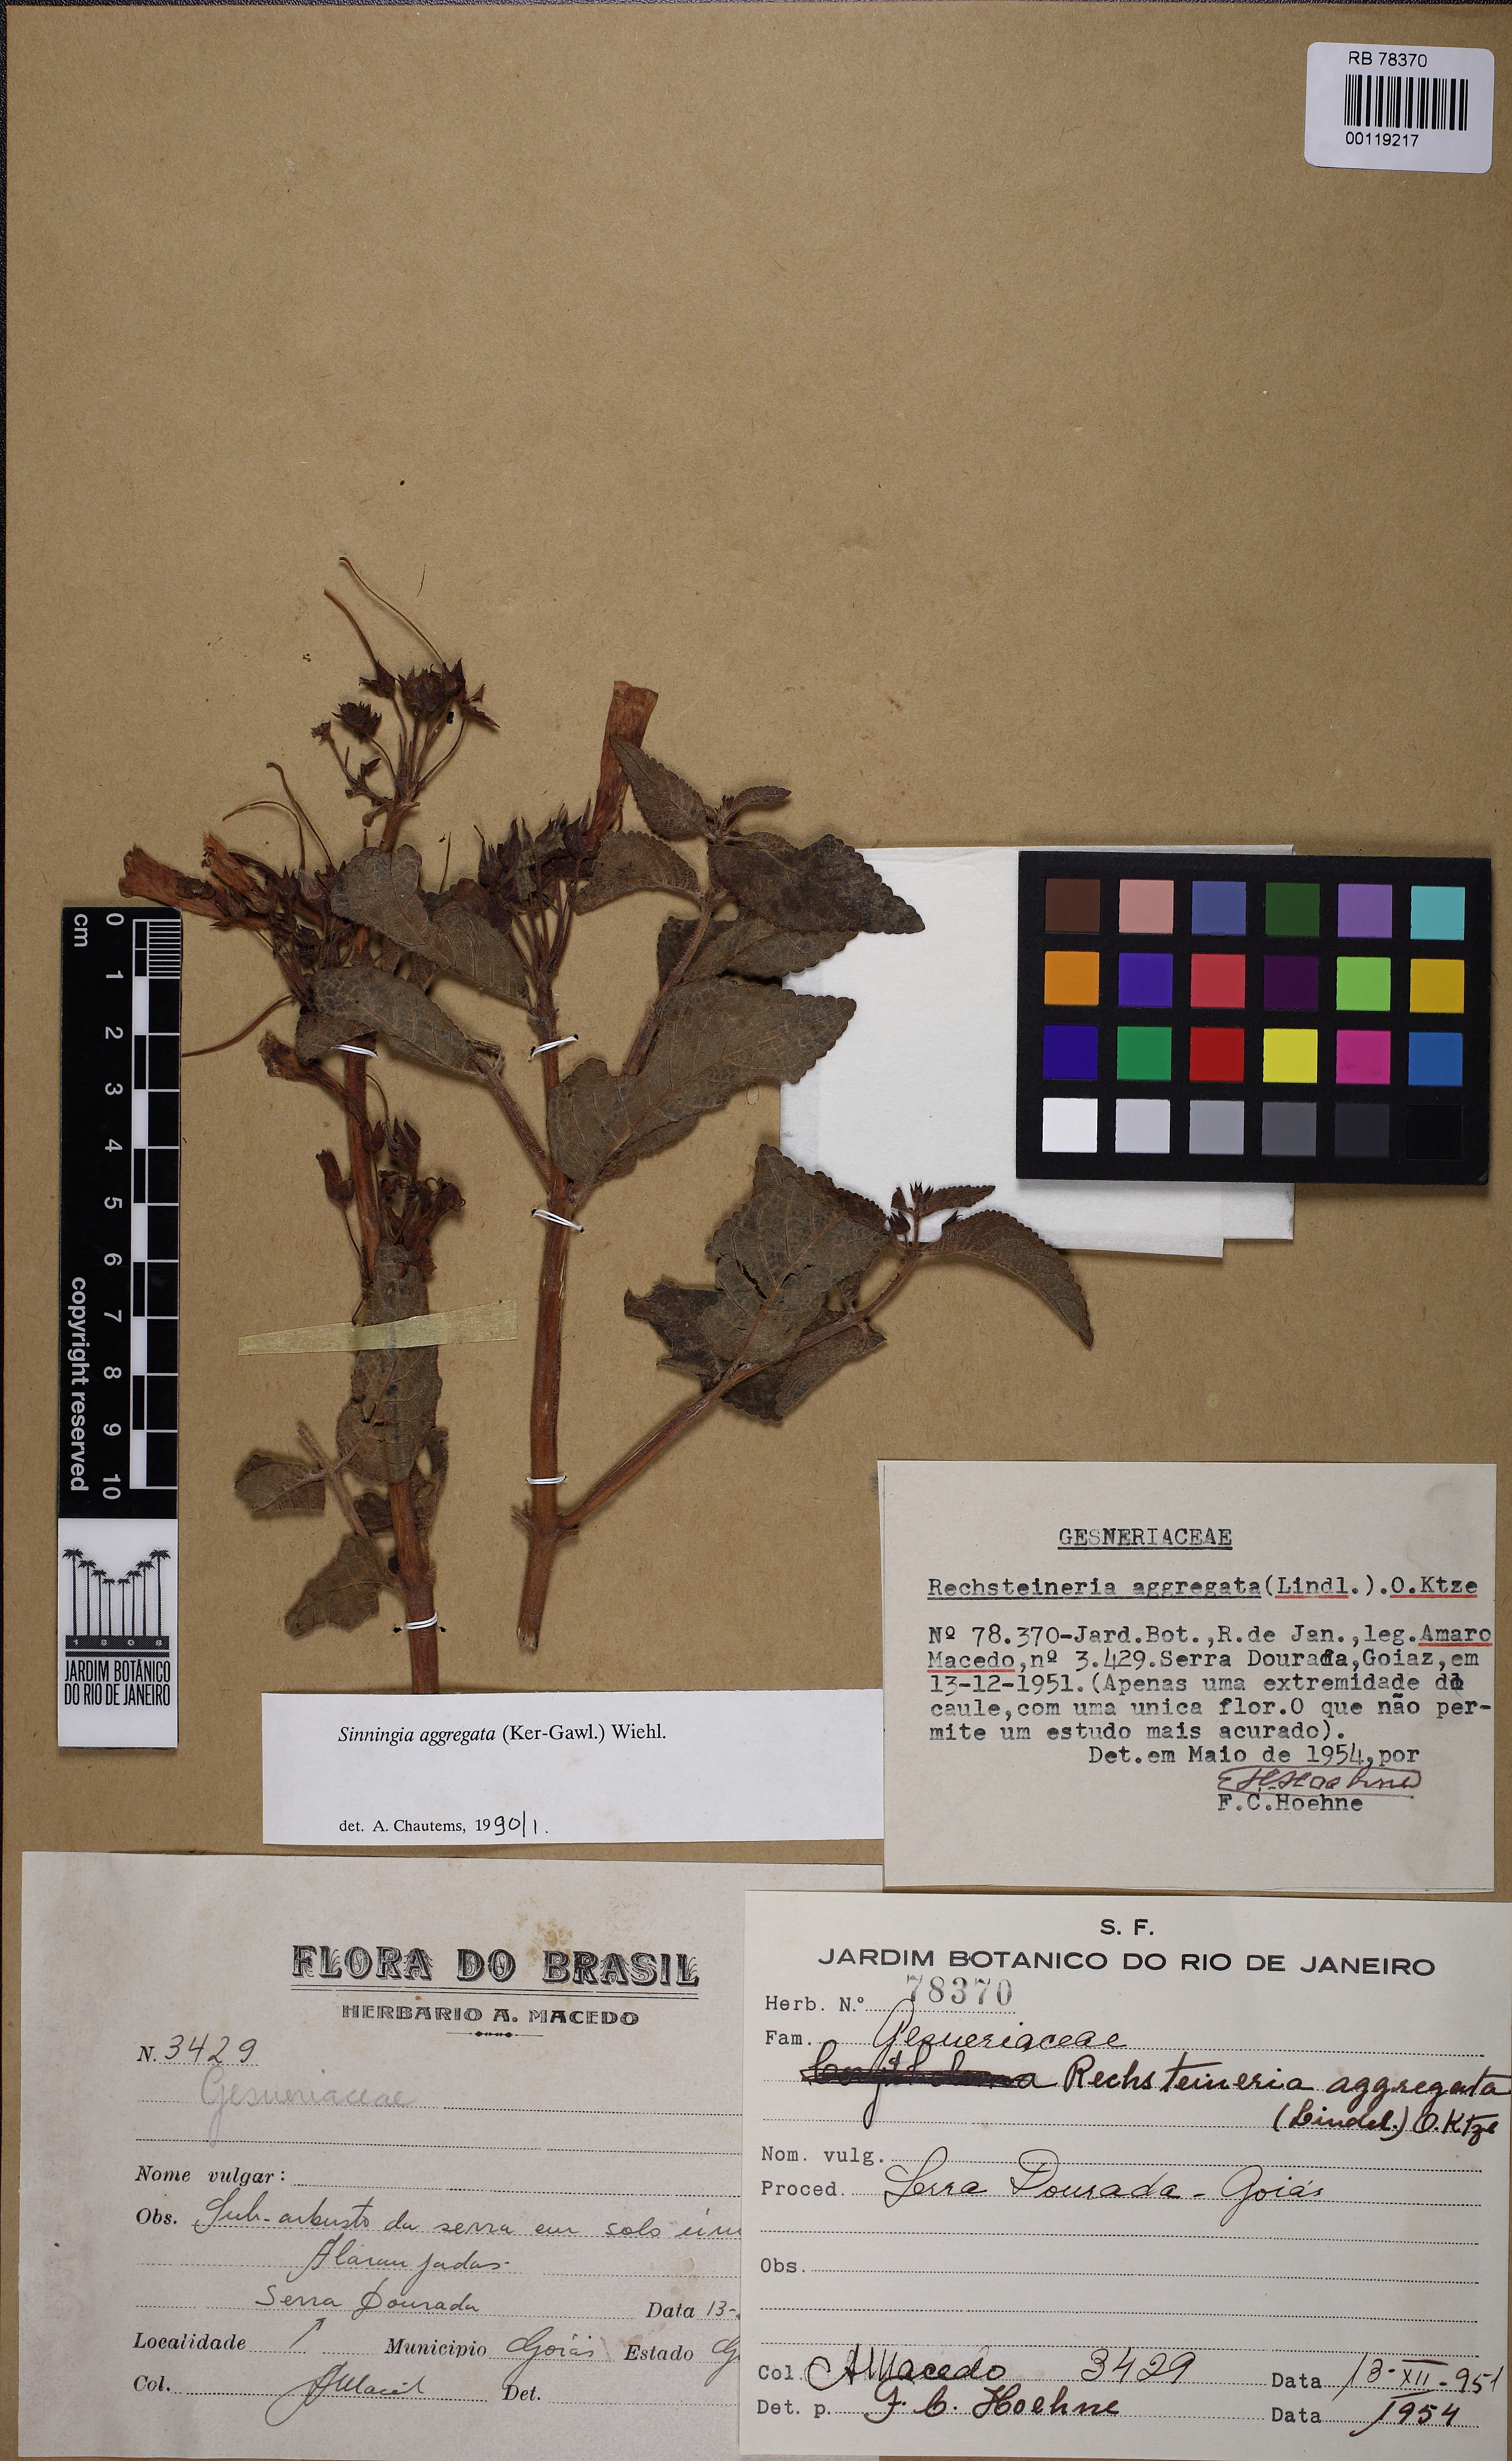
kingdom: Plantae
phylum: Tracheophyta
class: Magnoliopsida
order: Lamiales
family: Gesneriaceae
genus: Sinningia
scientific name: Sinningia aggregata
